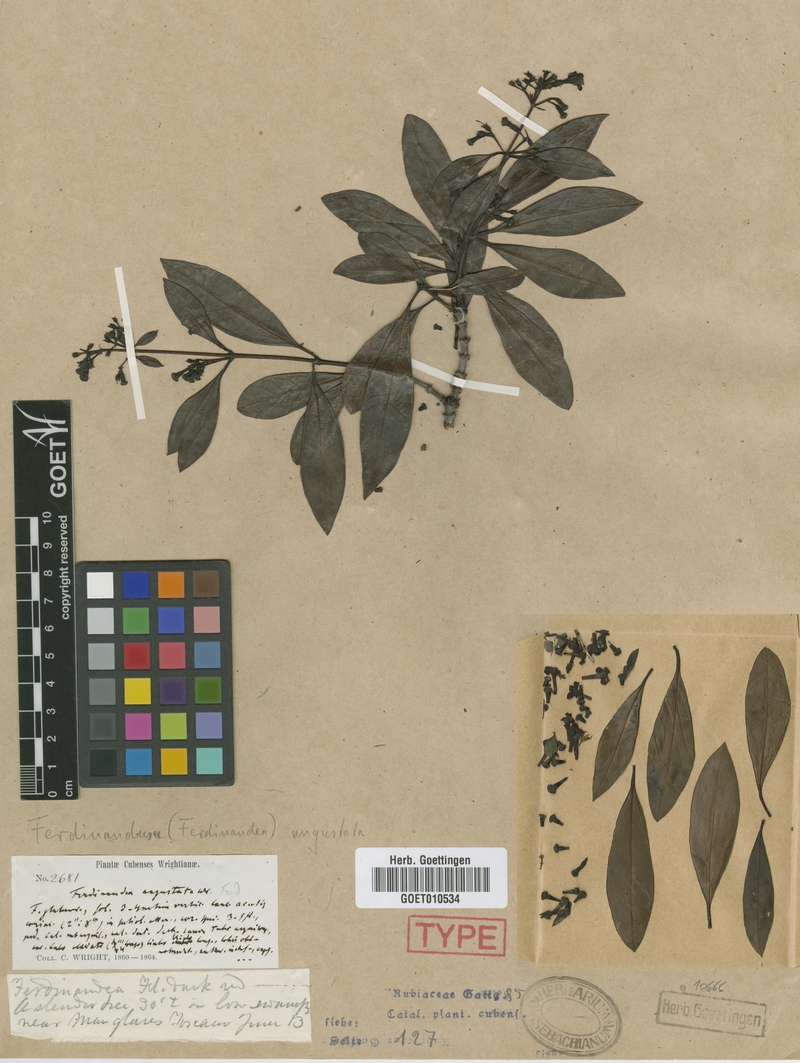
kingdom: Plantae
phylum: Tracheophyta
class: Magnoliopsida
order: Gentianales
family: Rubiaceae
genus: Suberanthus
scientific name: Suberanthus angustatus
